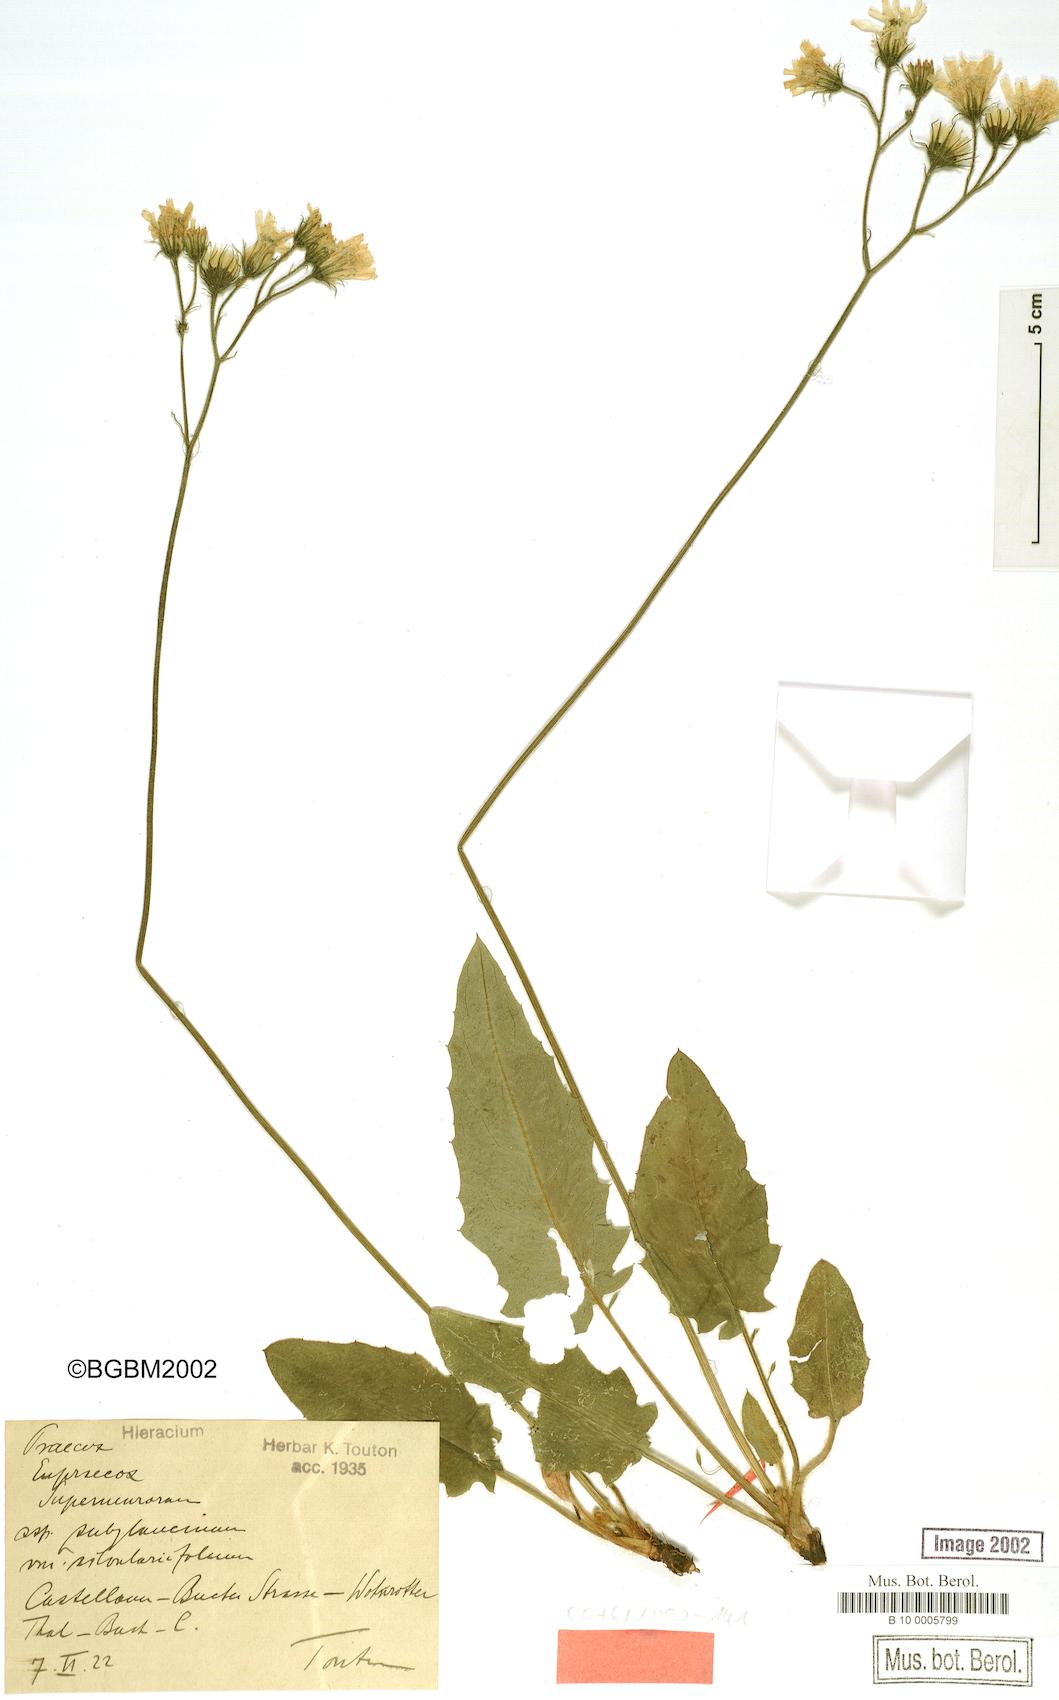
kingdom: Plantae
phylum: Tracheophyta
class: Magnoliopsida
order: Asterales
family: Asteraceae
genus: Hieracium
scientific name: Hieracium praecox
